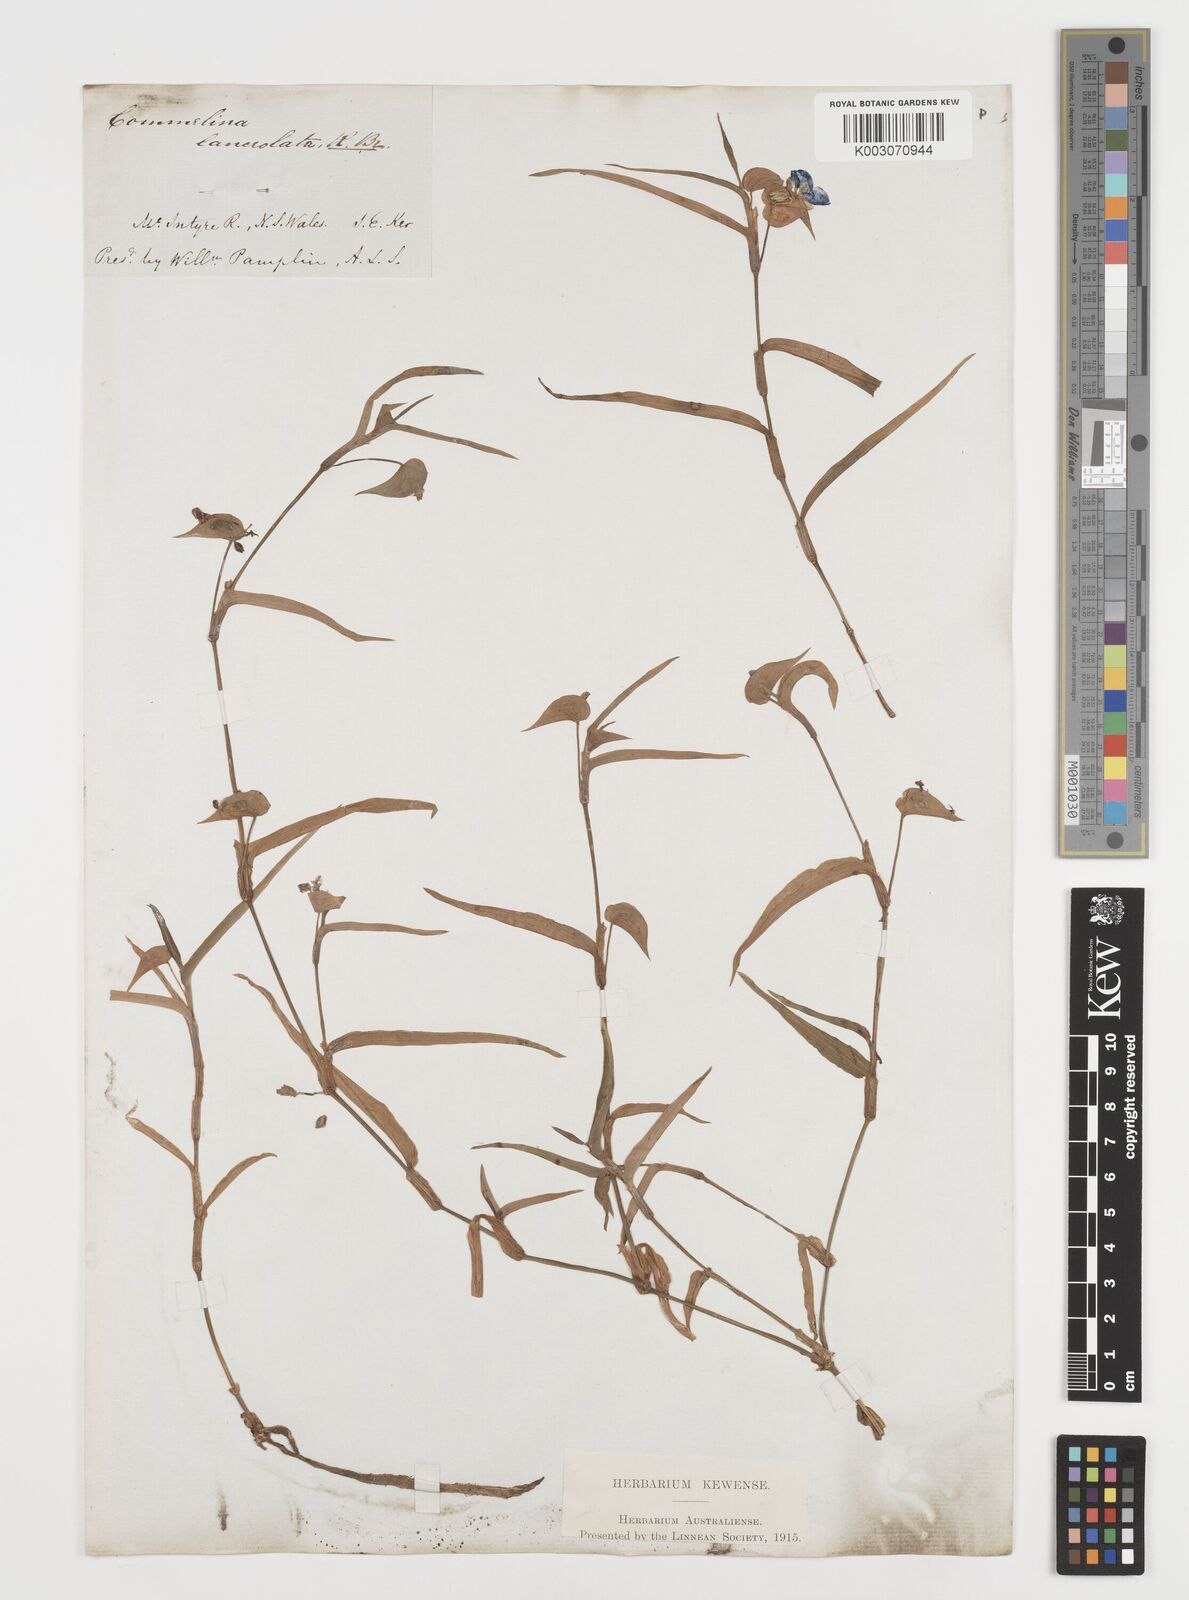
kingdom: Plantae
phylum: Tracheophyta
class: Liliopsida
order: Commelinales
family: Commelinaceae
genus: Commelina
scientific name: Commelina lanceolata
